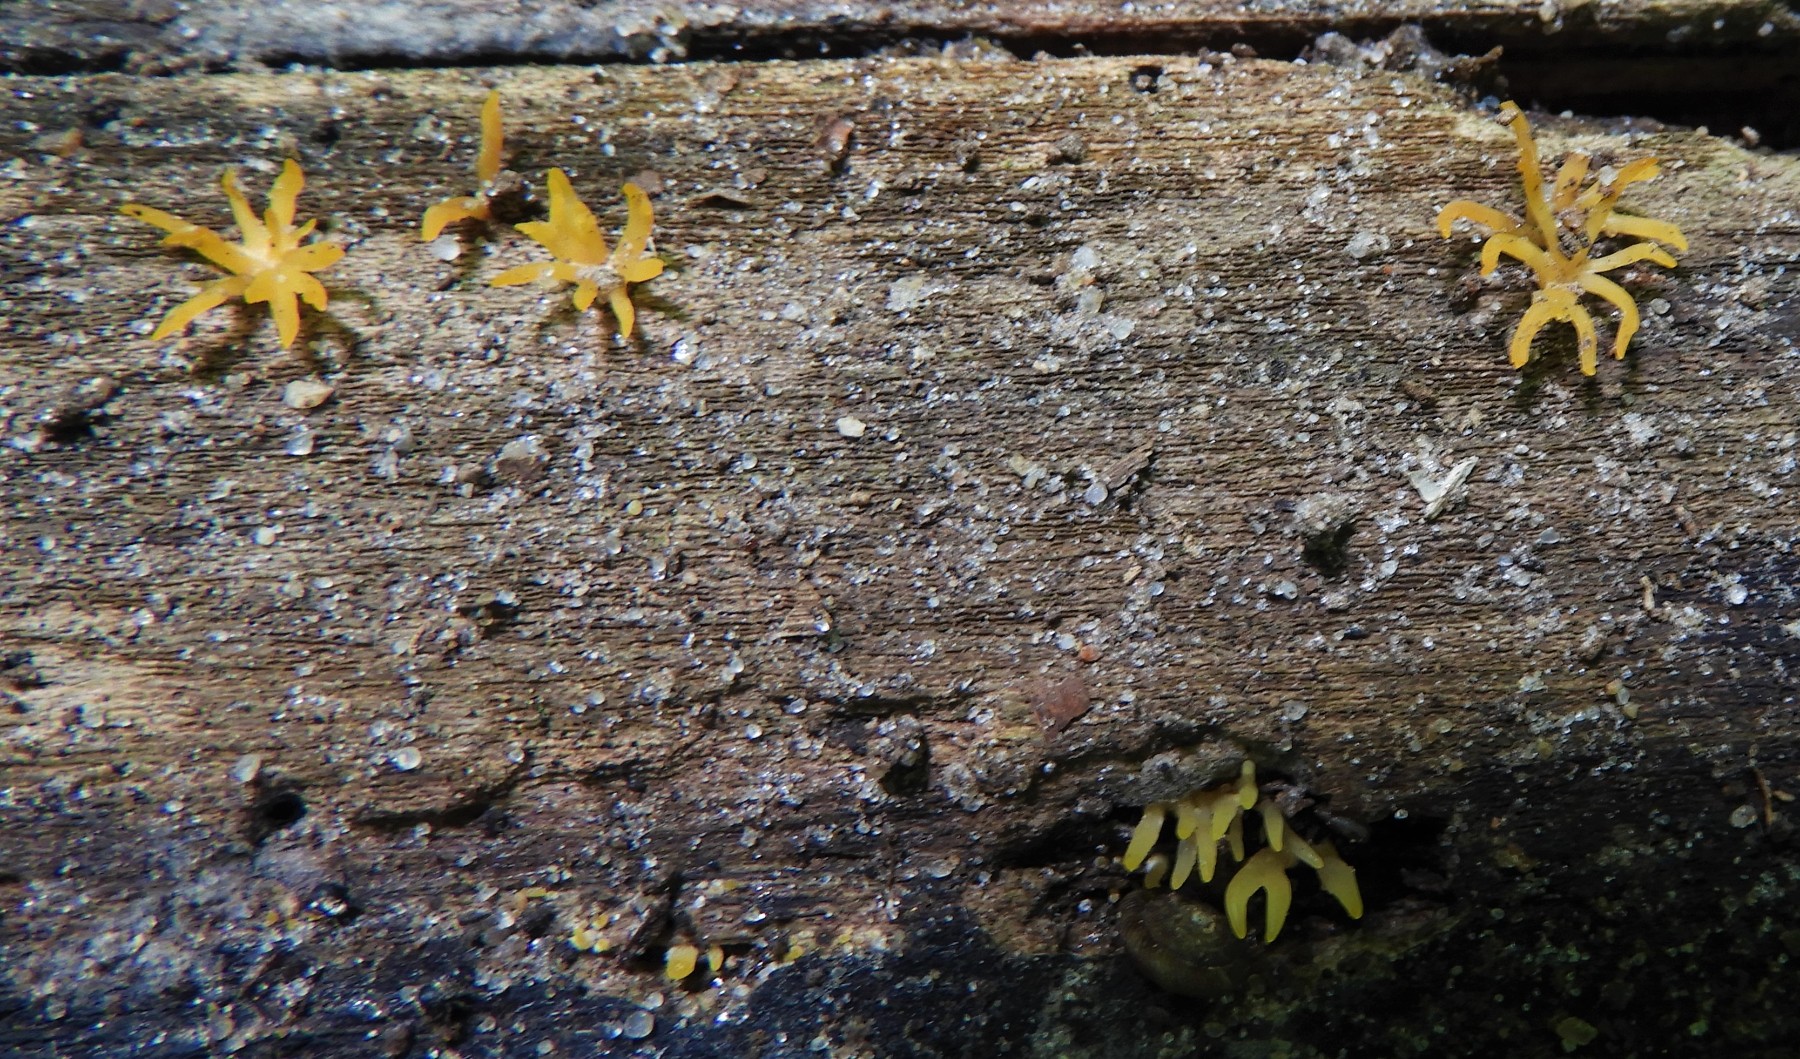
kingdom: Fungi
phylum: Basidiomycota
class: Dacrymycetes
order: Dacrymycetales
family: Dacrymycetaceae
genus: Calocera
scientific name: Calocera cornea
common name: liden guldgaffel
